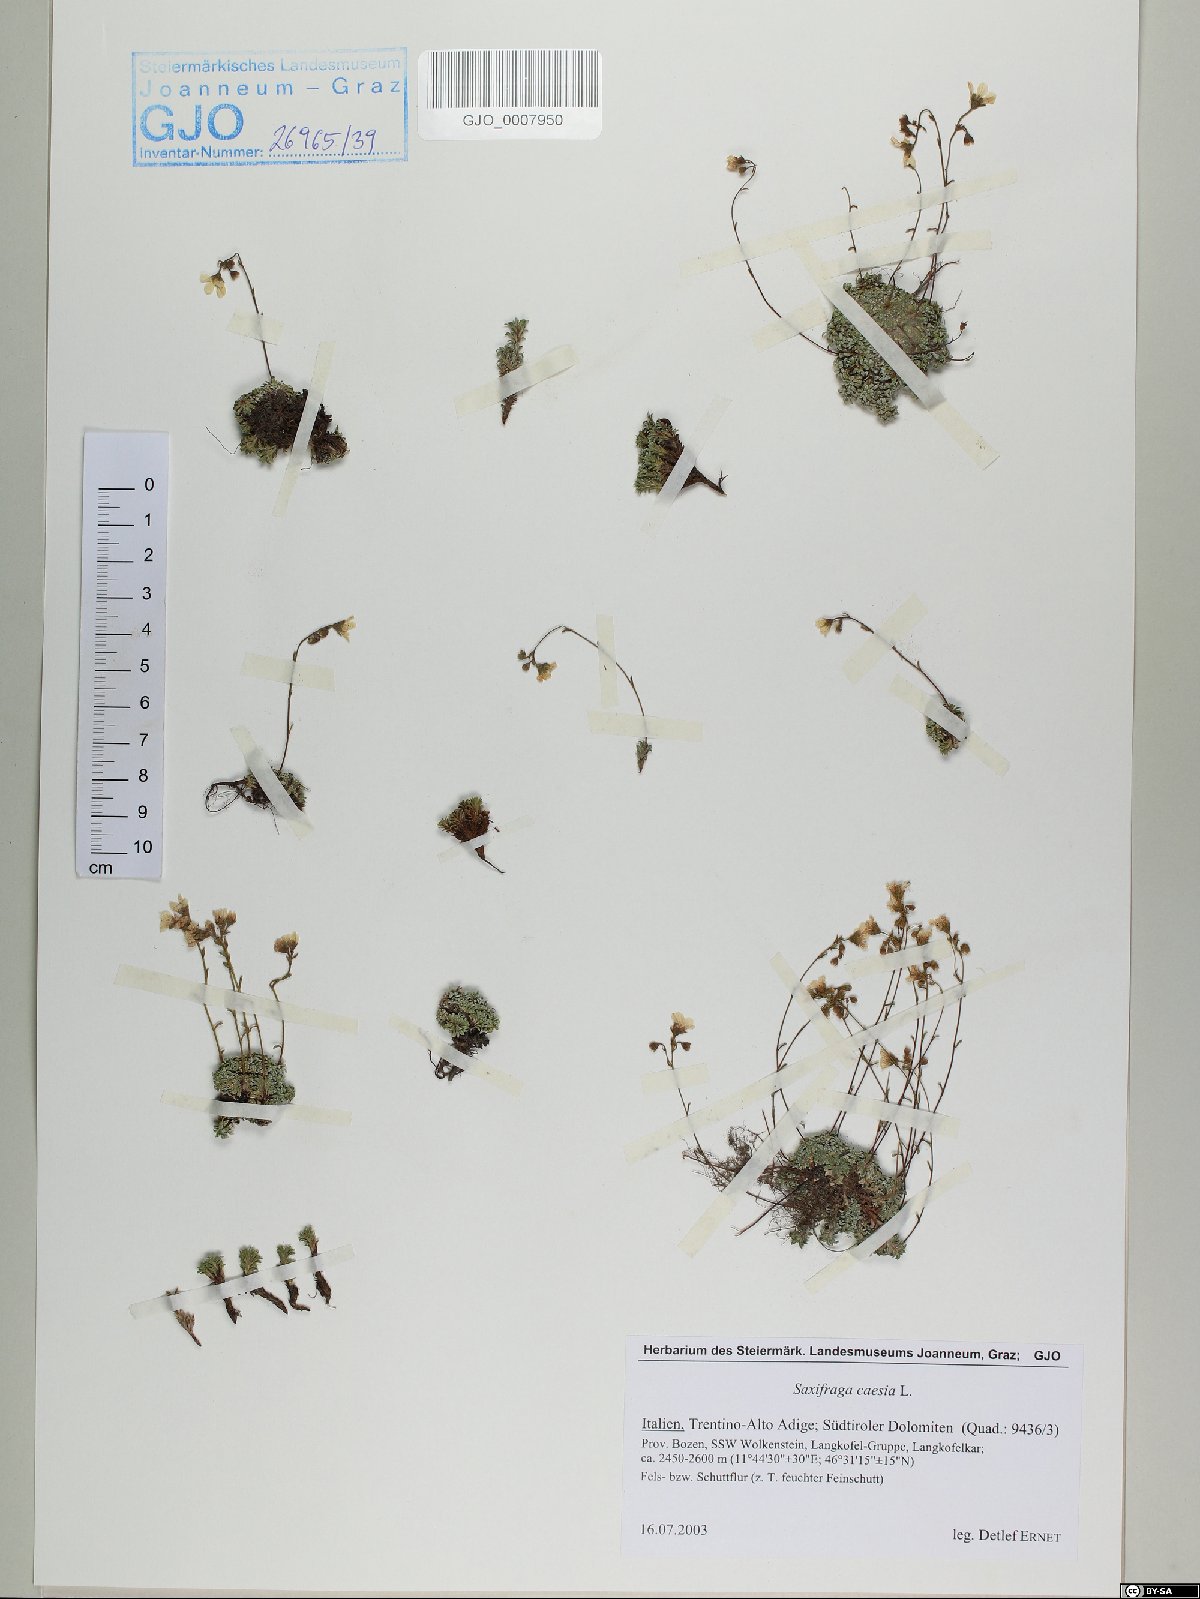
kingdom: Plantae
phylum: Tracheophyta
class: Magnoliopsida
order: Saxifragales
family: Saxifragaceae
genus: Saxifraga
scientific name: Saxifraga caesia
